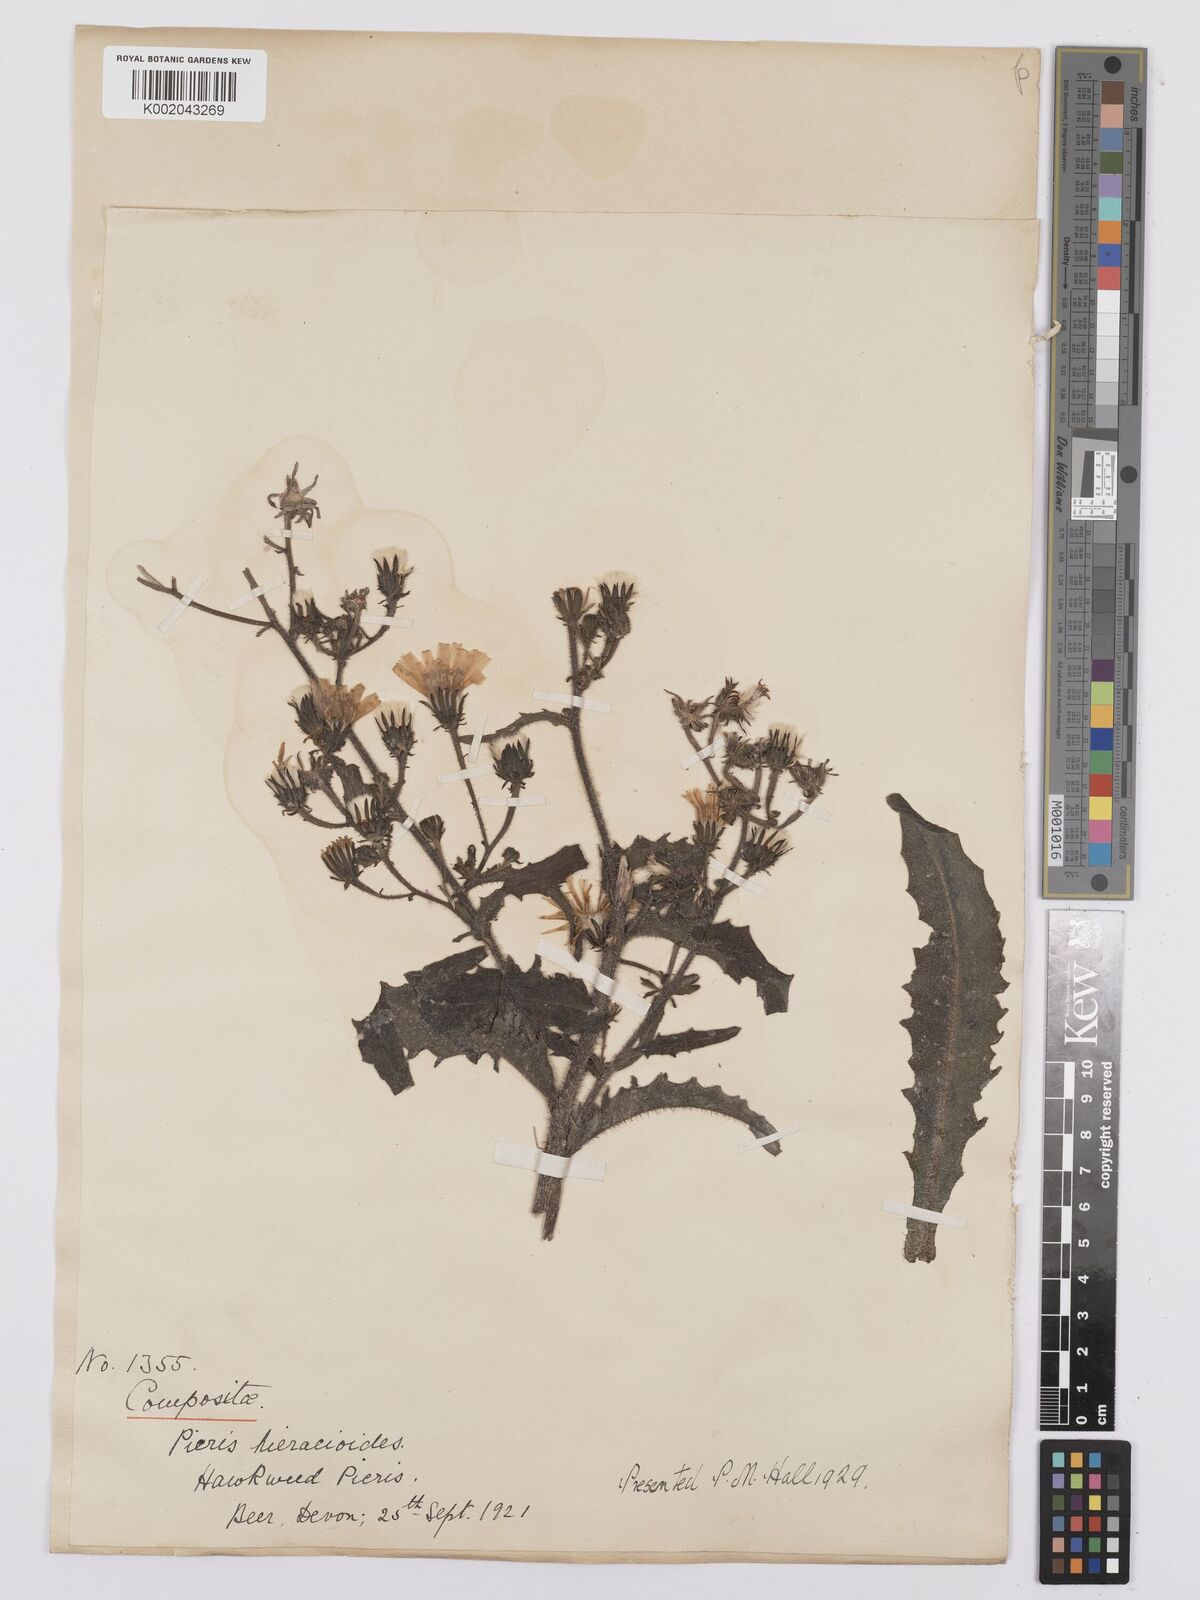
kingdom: Plantae
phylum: Tracheophyta
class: Magnoliopsida
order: Asterales
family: Asteraceae
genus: Picris
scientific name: Picris hieracioides
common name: Hawkweed oxtongue
